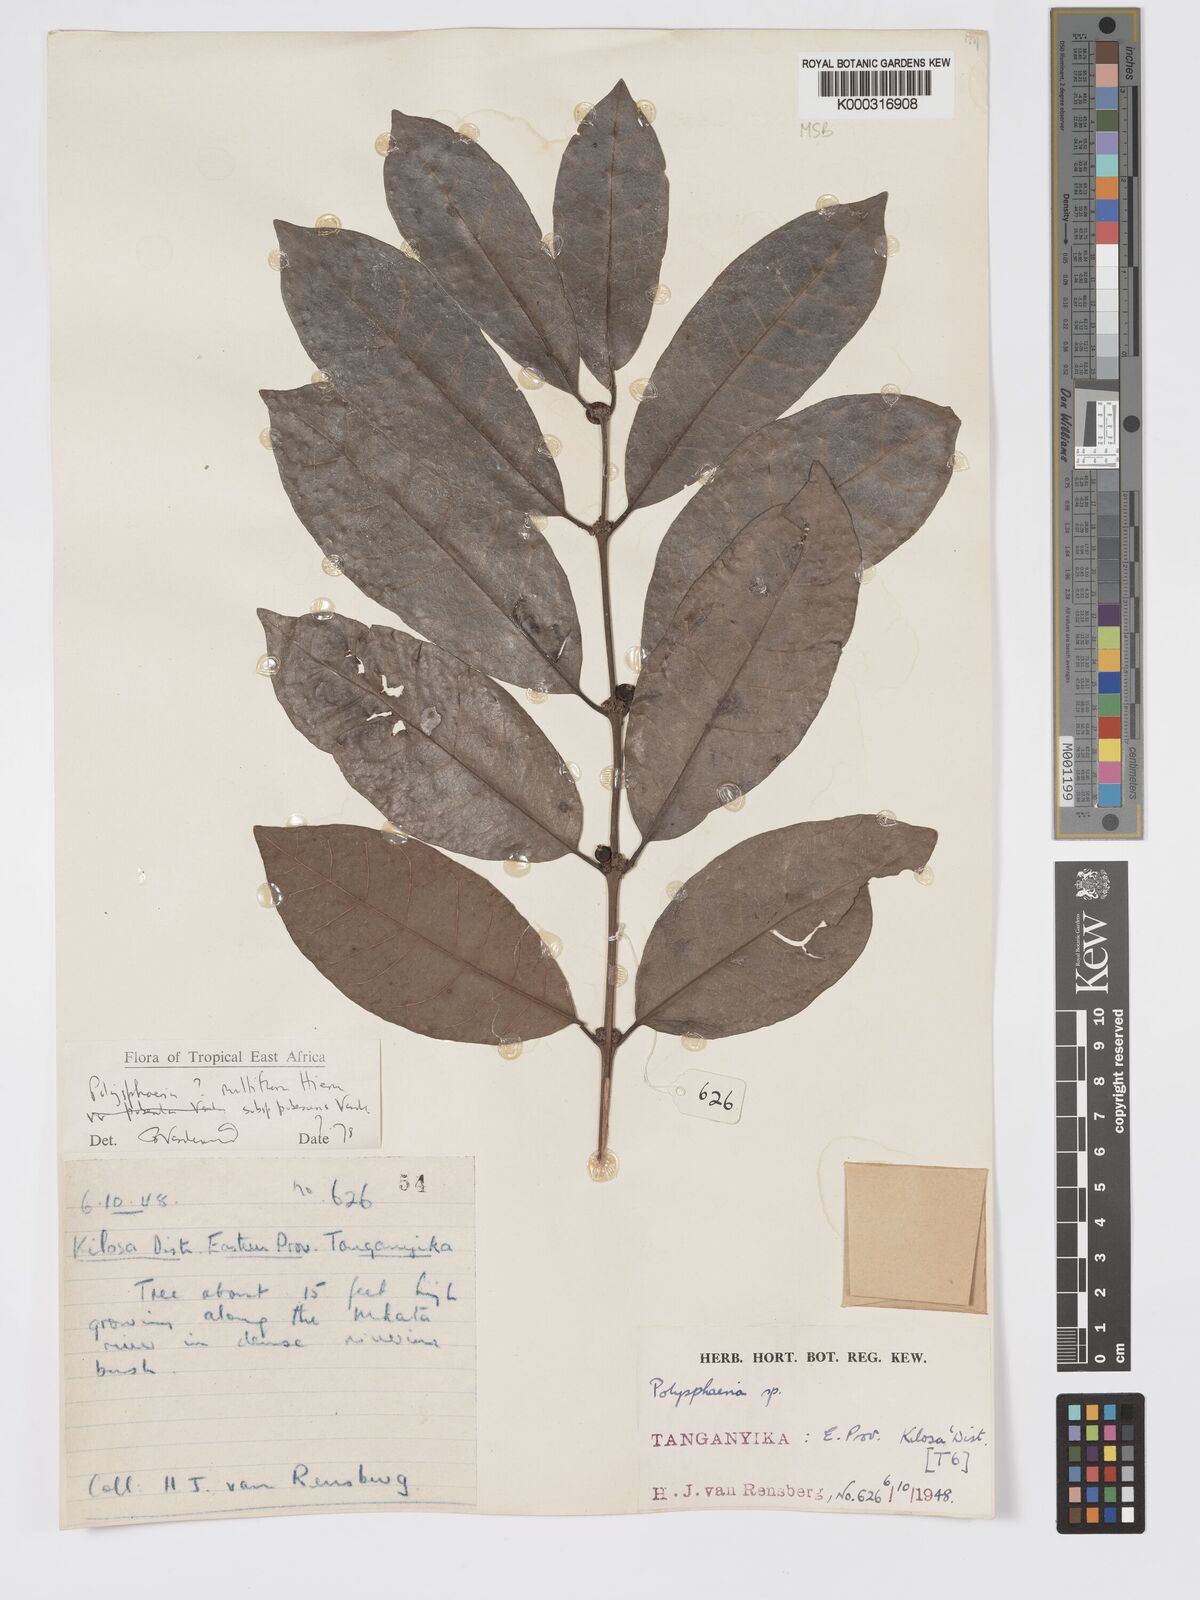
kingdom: Plantae
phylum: Tracheophyta
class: Magnoliopsida
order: Gentianales
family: Rubiaceae
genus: Polysphaeria
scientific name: Polysphaeria multiflora
